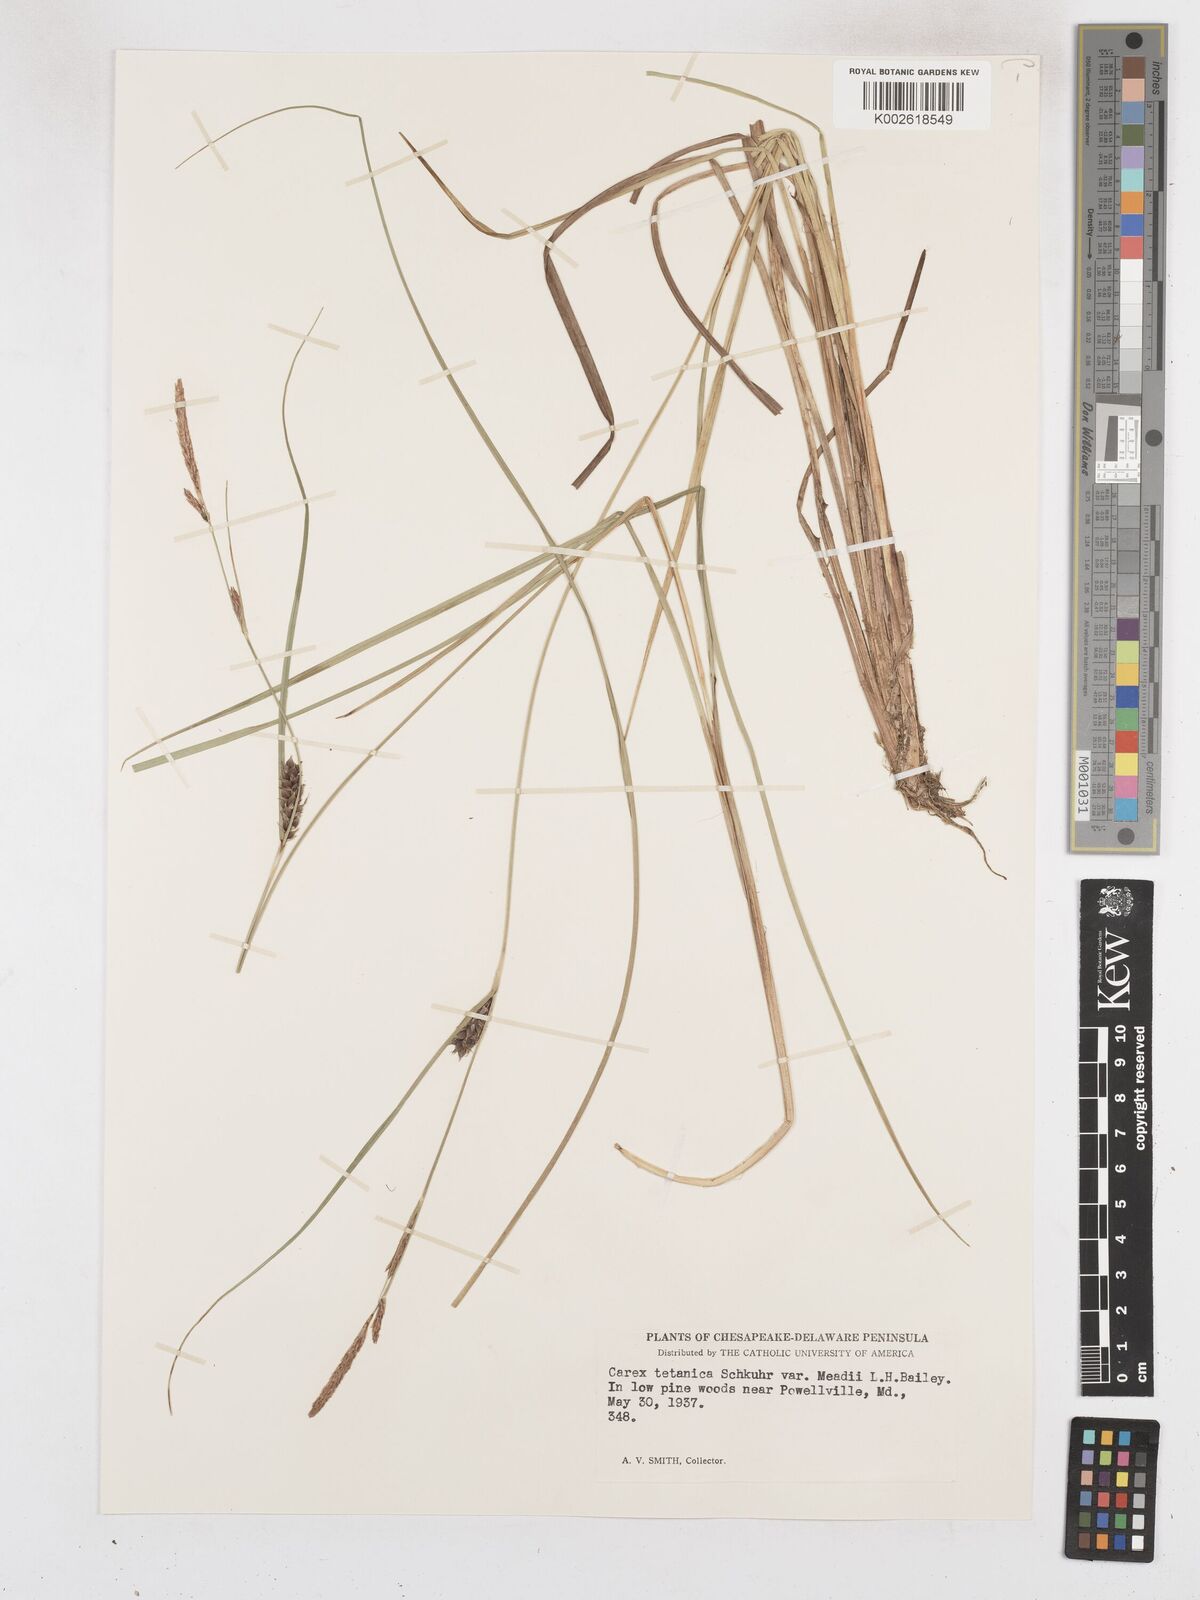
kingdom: Plantae
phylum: Tracheophyta
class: Liliopsida
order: Poales
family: Cyperaceae
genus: Carex
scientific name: Carex meadii
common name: Mead's sedge
